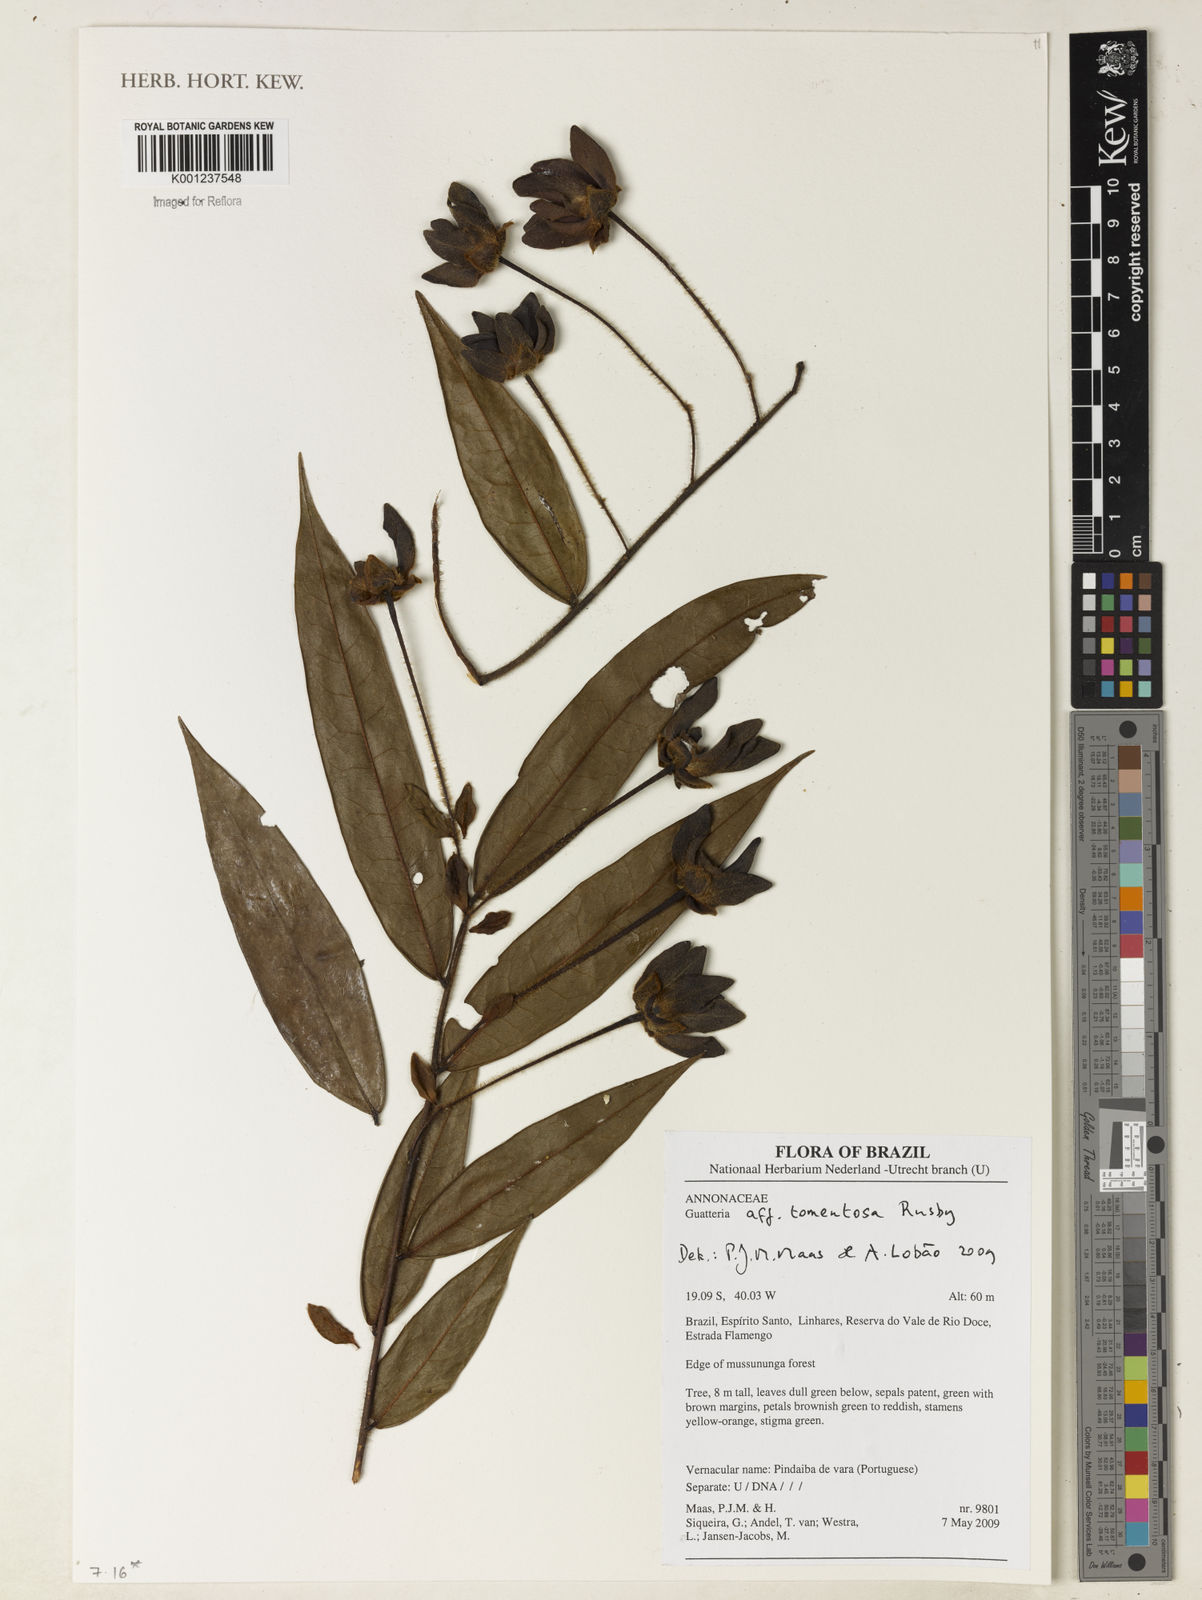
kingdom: Plantae
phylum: Tracheophyta
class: Magnoliopsida
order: Magnoliales
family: Annonaceae
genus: Guatteria
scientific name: Guatteria tomentosa
